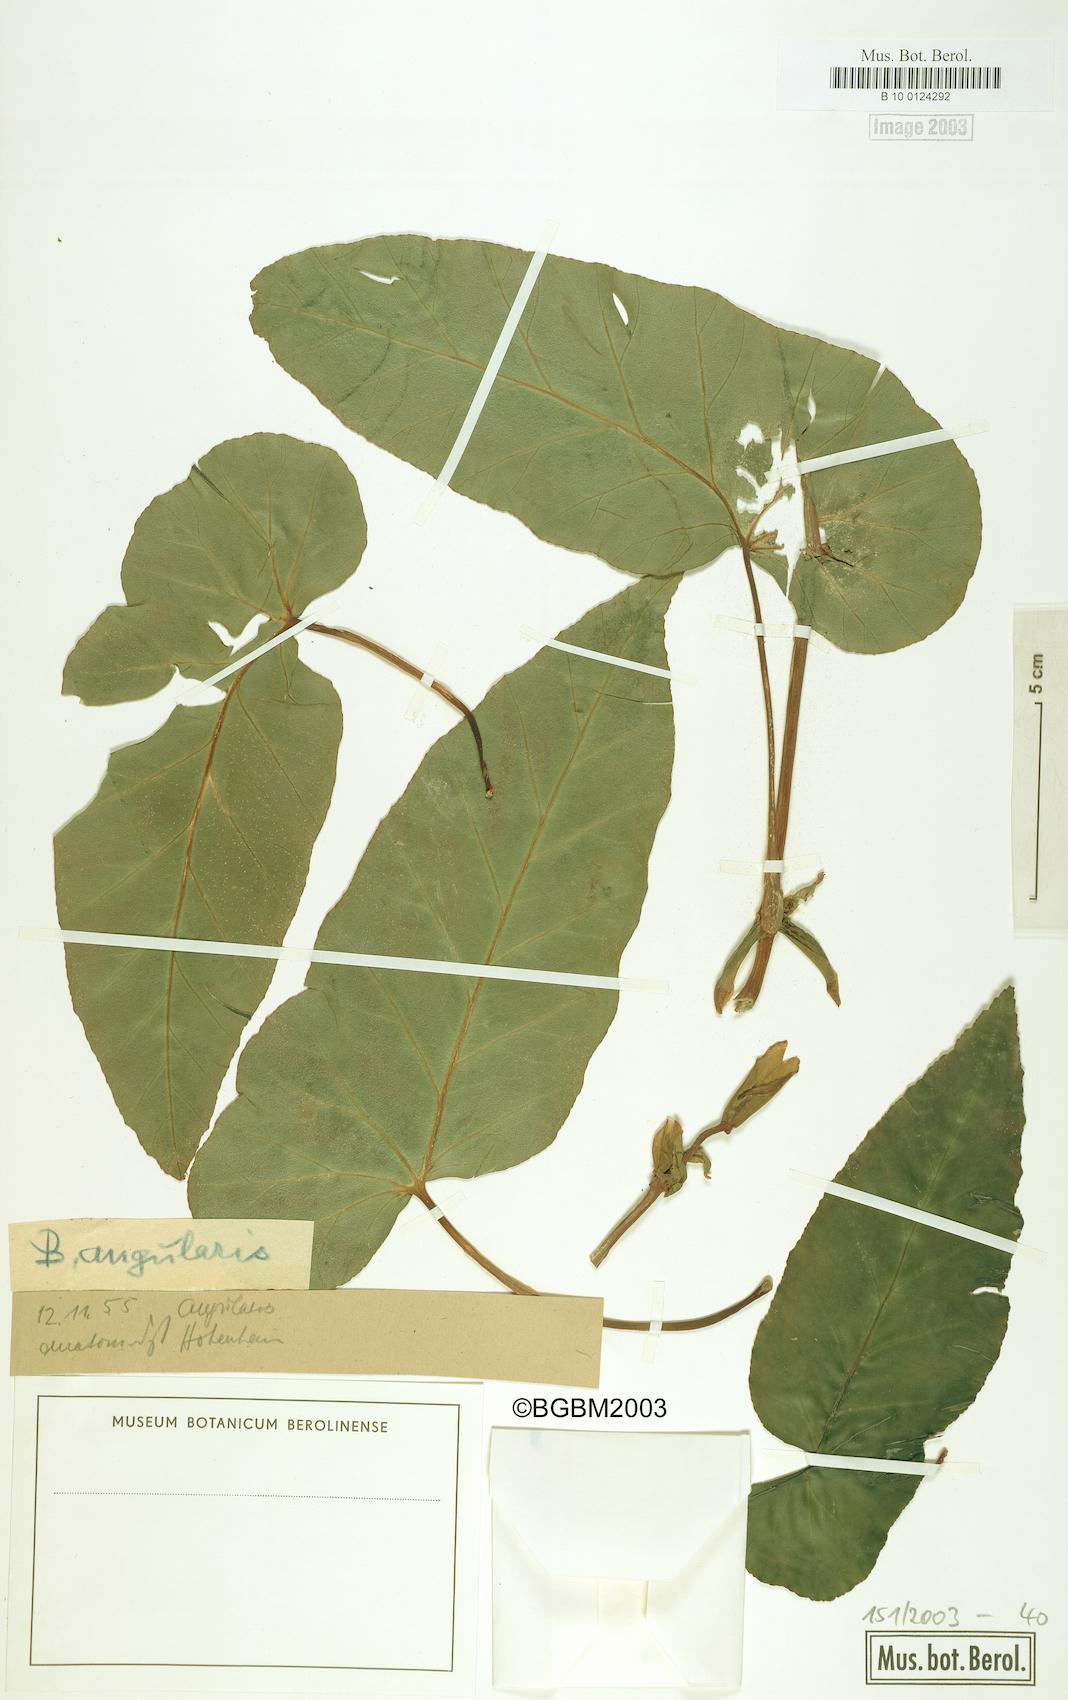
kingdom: Plantae
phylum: Tracheophyta
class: Magnoliopsida
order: Cucurbitales
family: Begoniaceae
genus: Begonia
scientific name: Begonia angularis
